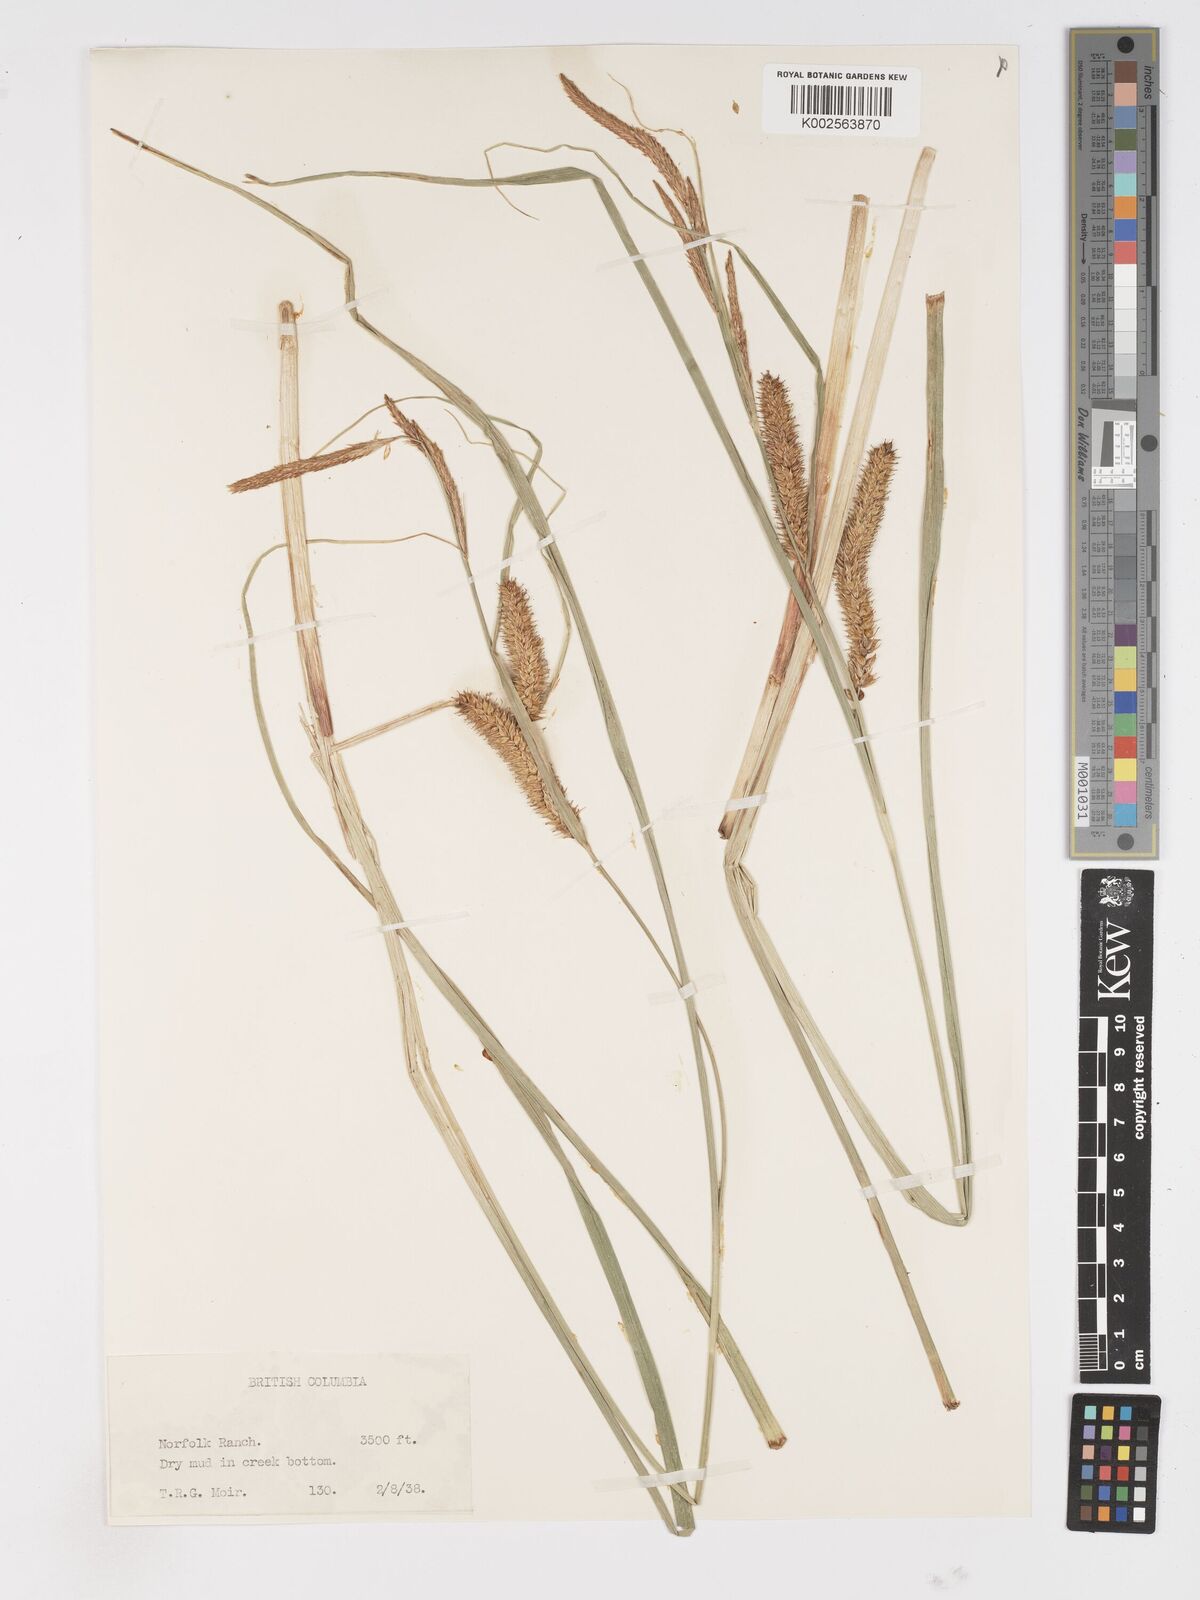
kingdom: Plantae
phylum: Tracheophyta
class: Liliopsida
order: Poales
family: Cyperaceae
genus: Carex
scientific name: Carex rostrata
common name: Bottle sedge
